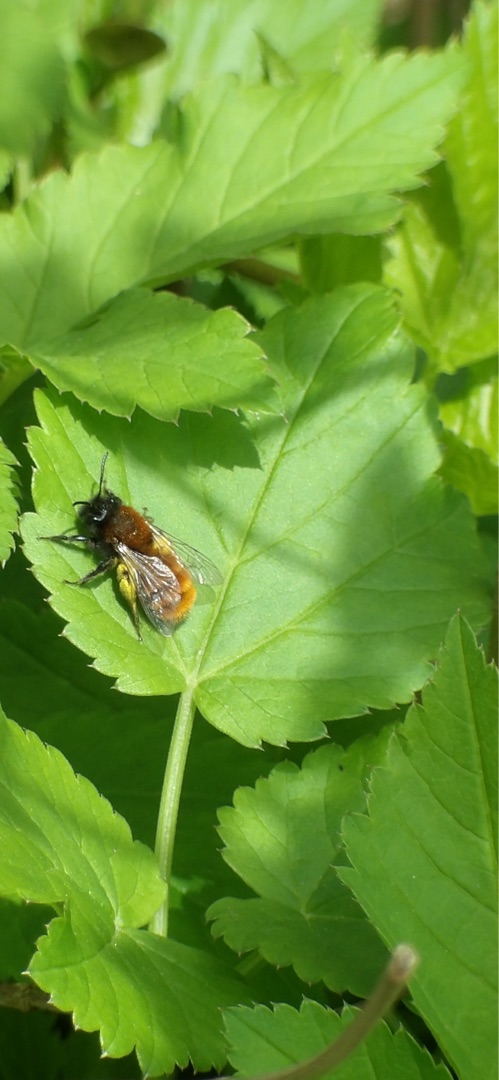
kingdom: Animalia
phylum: Arthropoda
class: Insecta
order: Hymenoptera
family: Andrenidae
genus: Andrena
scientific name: Andrena fulva
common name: Rødpelset jordbi
